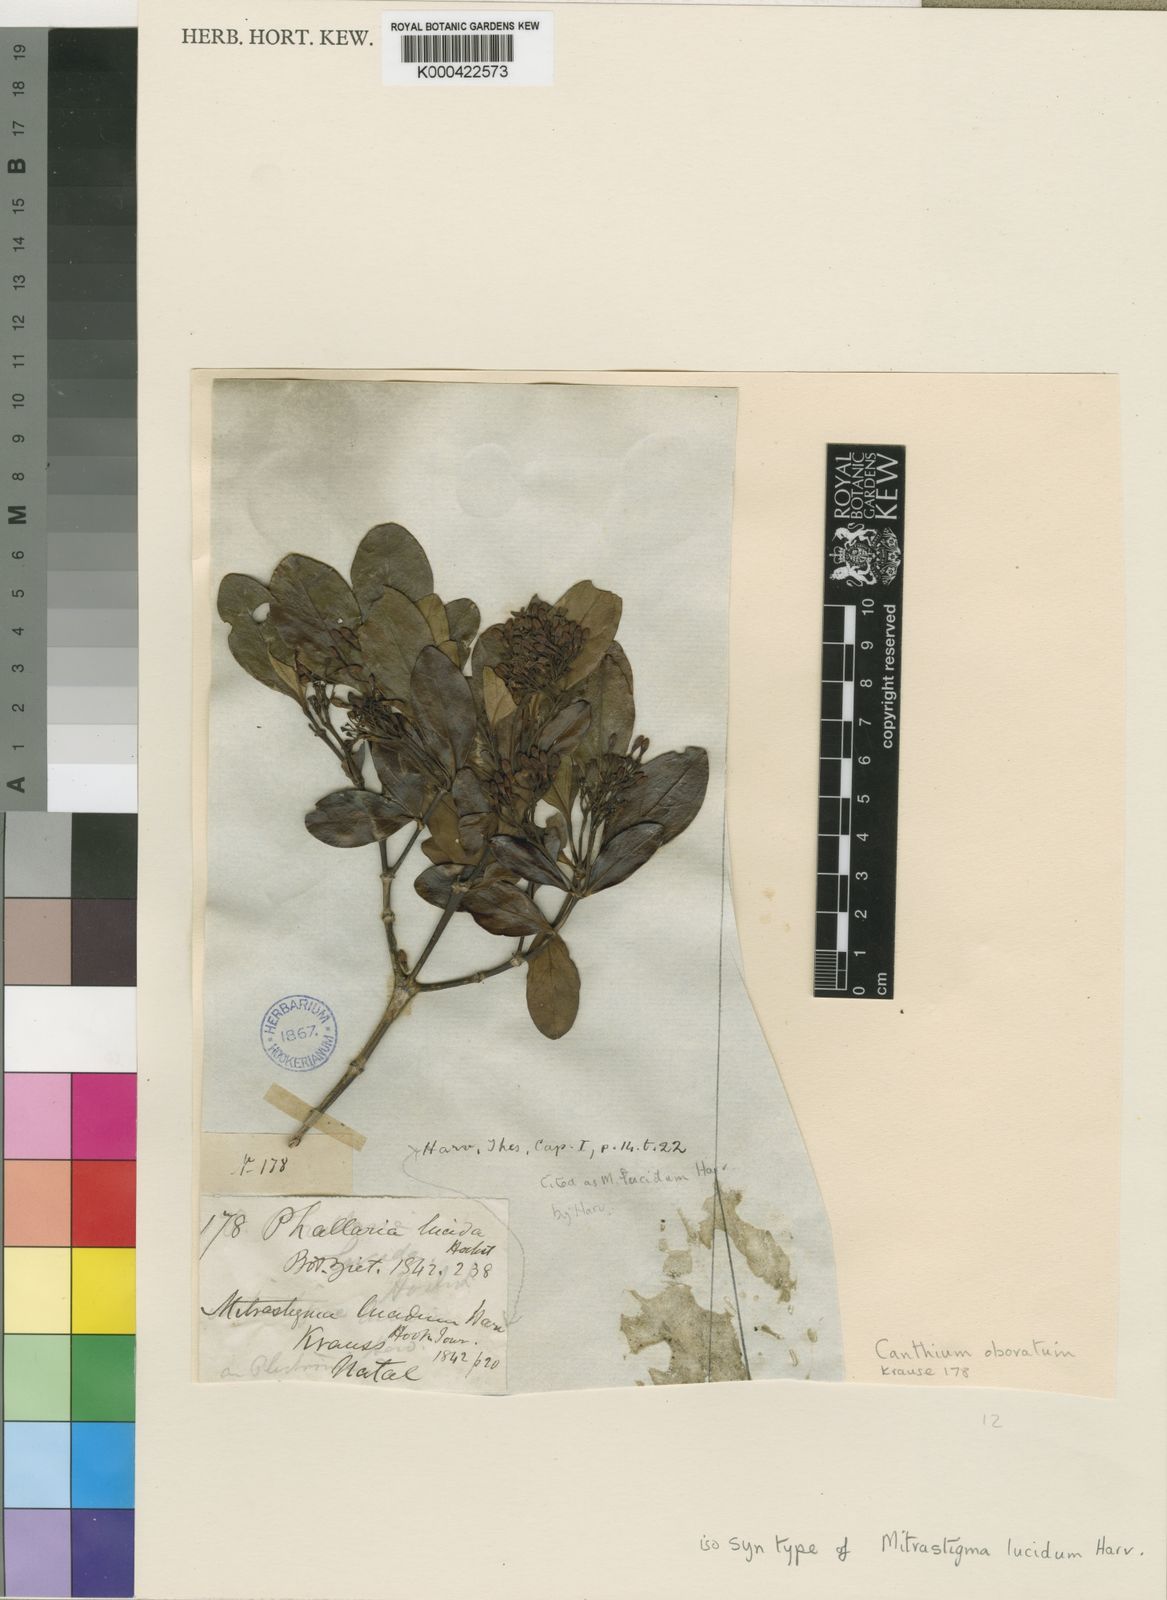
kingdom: Plantae
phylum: Tracheophyta
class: Magnoliopsida
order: Gentianales
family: Rubiaceae
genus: Psydrax
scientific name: Psydrax obovatus
